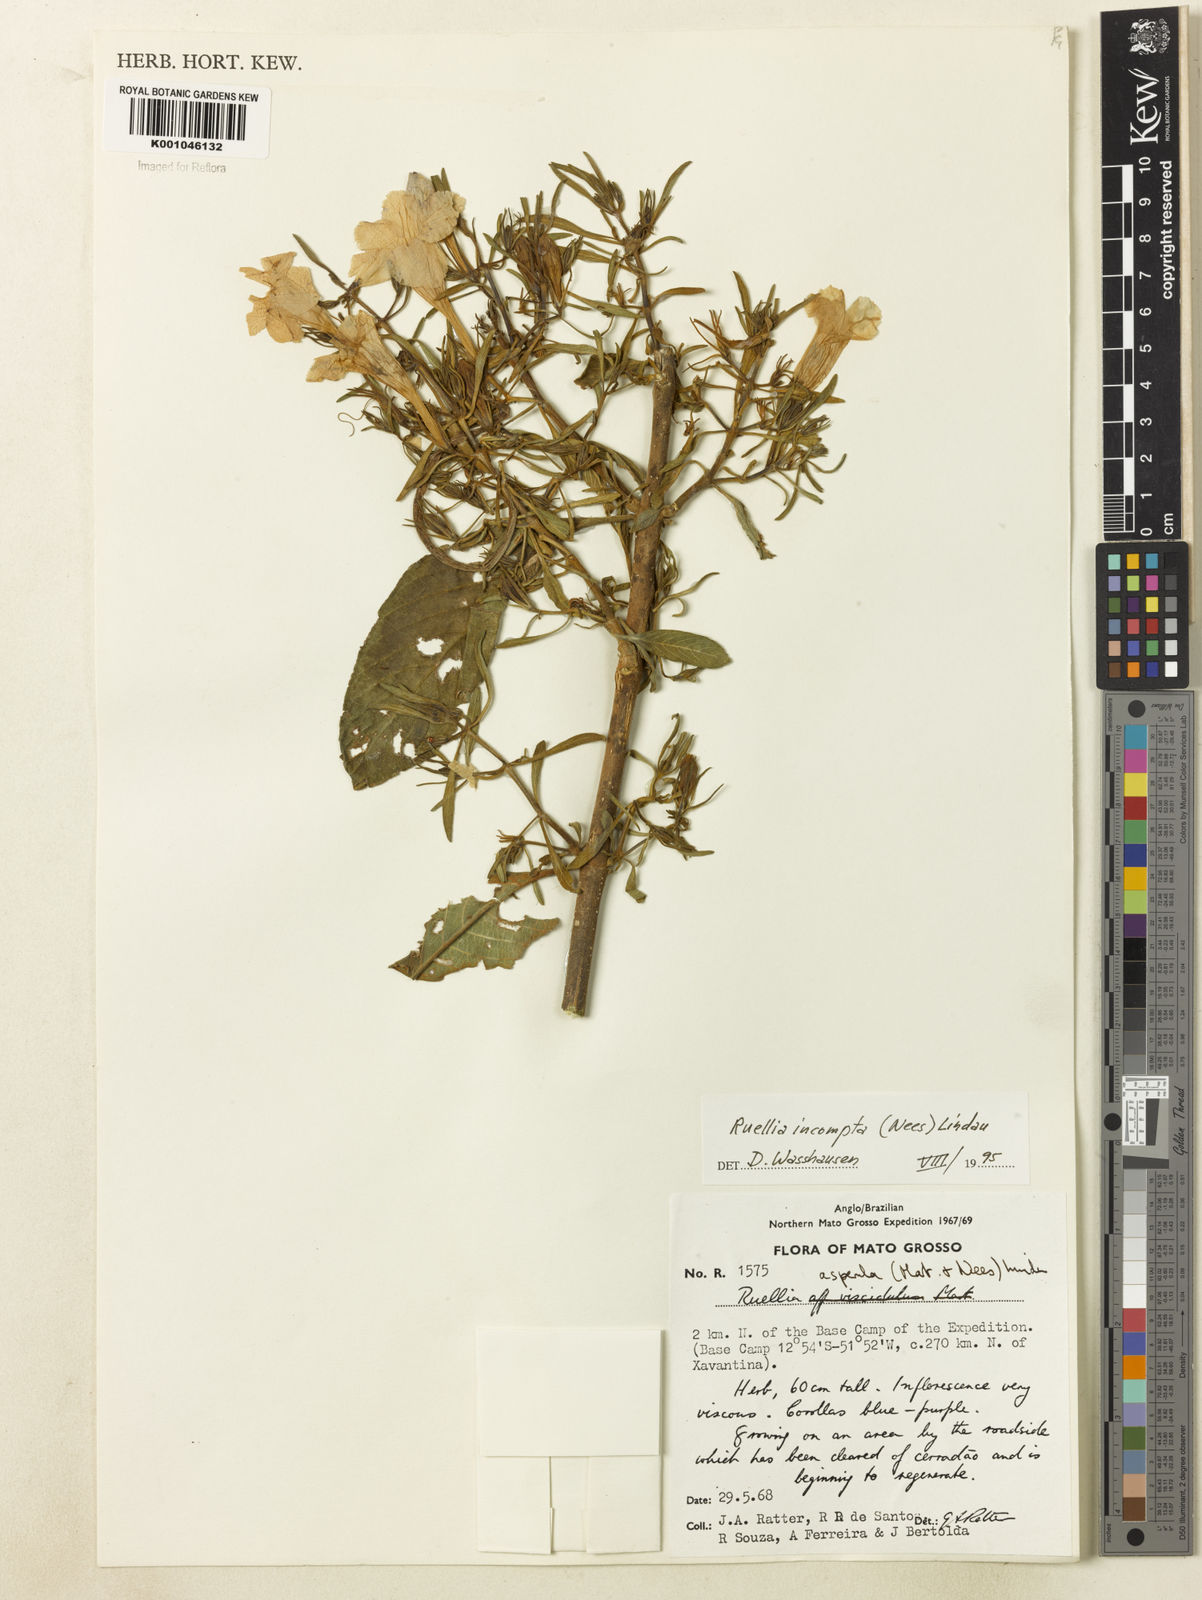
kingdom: Plantae
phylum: Tracheophyta
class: Magnoliopsida
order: Lamiales
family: Acanthaceae
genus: Ruellia
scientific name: Ruellia
